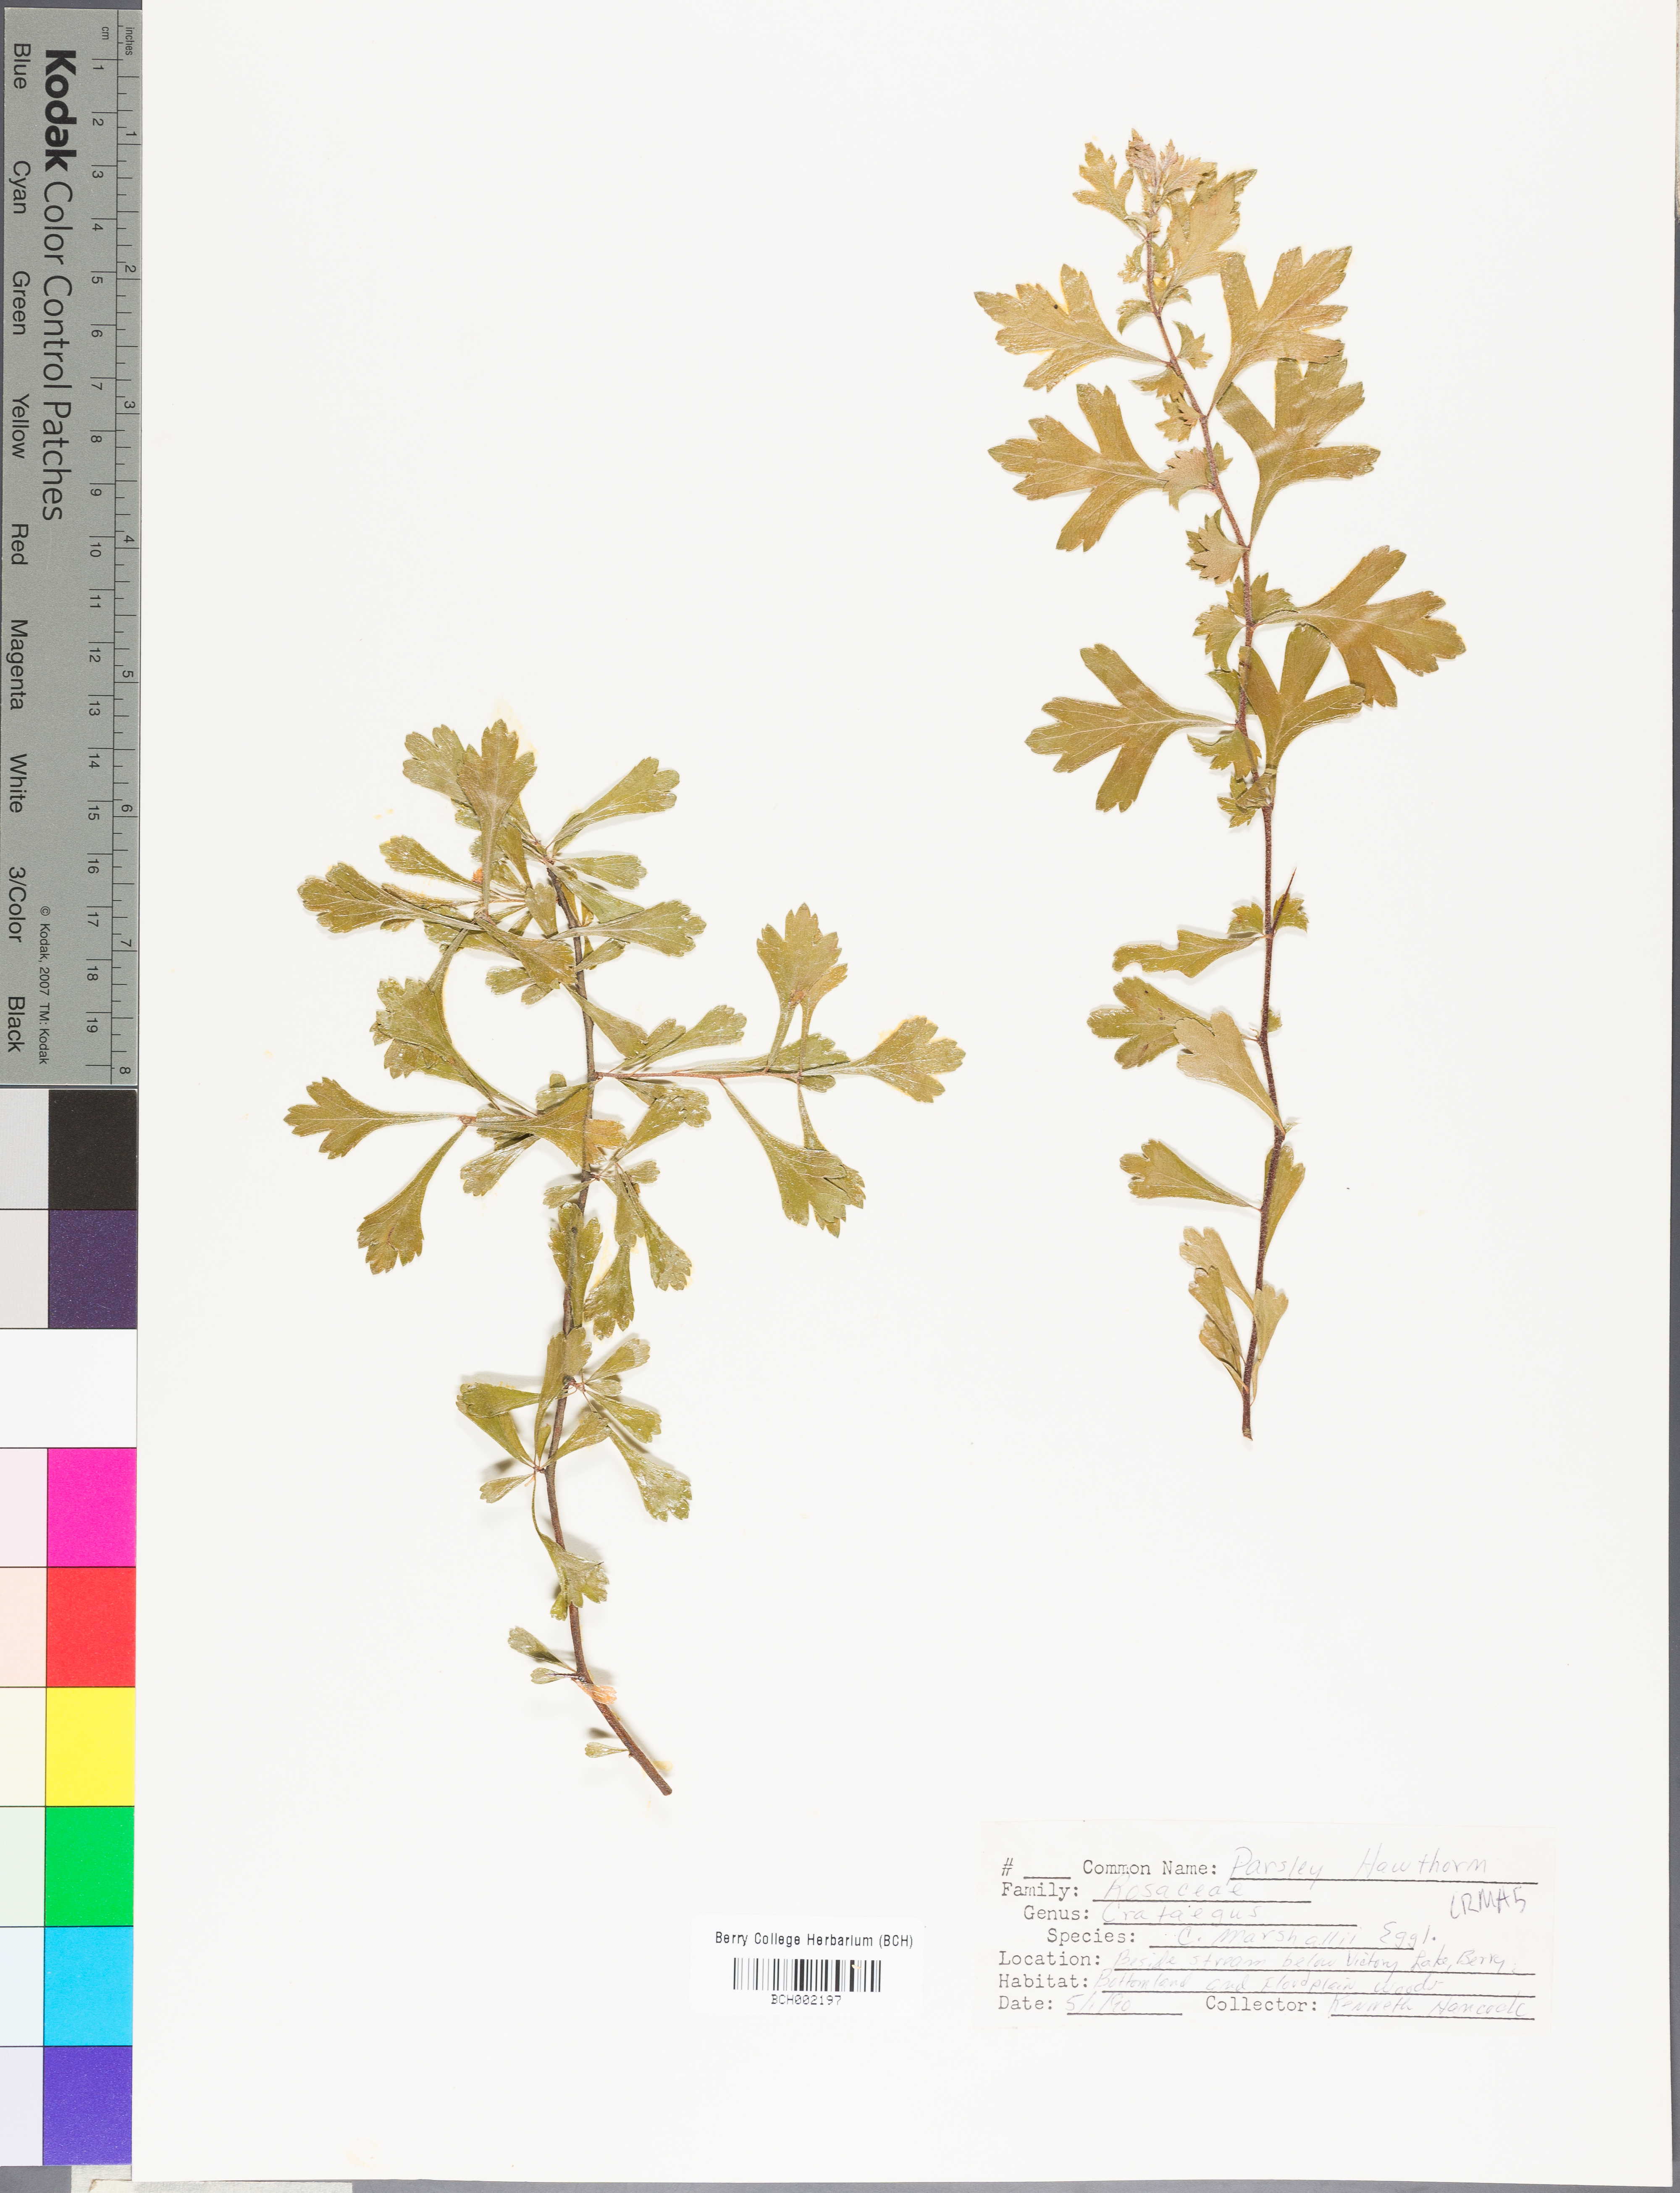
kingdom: Plantae
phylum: Tracheophyta
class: Magnoliopsida
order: Rosales
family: Rosaceae
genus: Crataegus
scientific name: Crataegus marshallii
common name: Parsley-hawthorn
